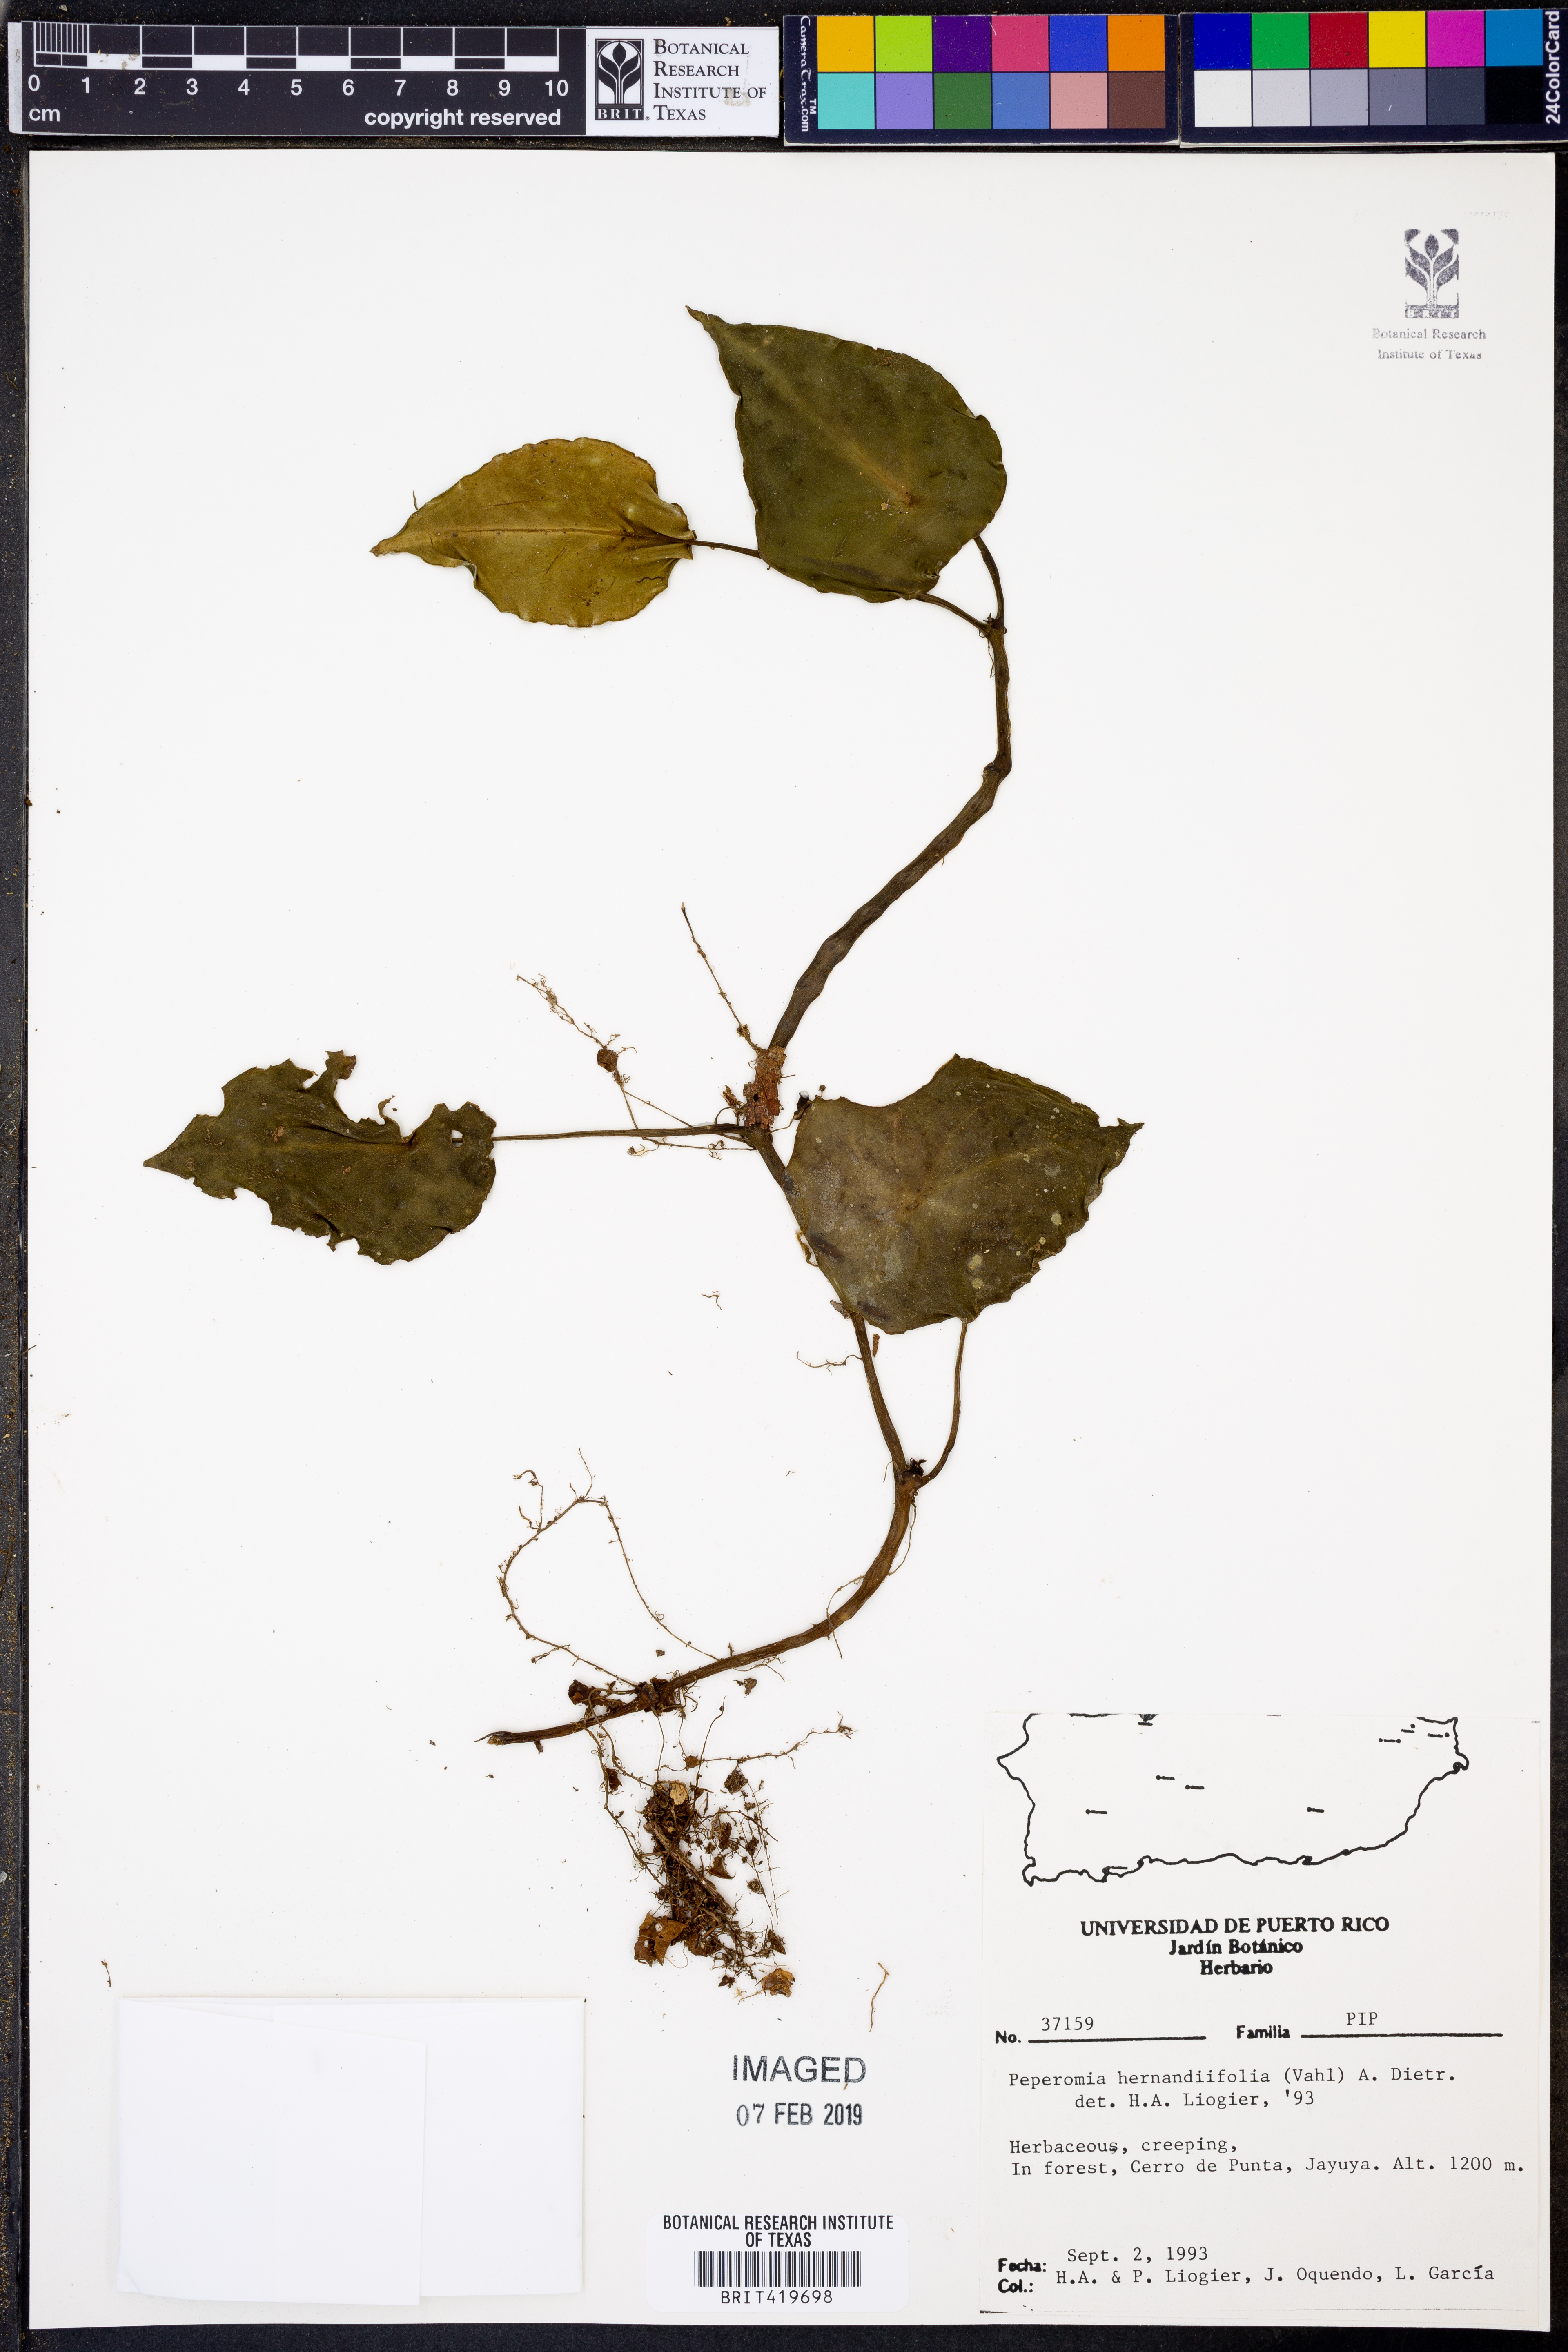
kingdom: Plantae
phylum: Tracheophyta
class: Magnoliopsida
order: Piperales
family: Piperaceae
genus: Peperomia
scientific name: Peperomia hernandiifolia
